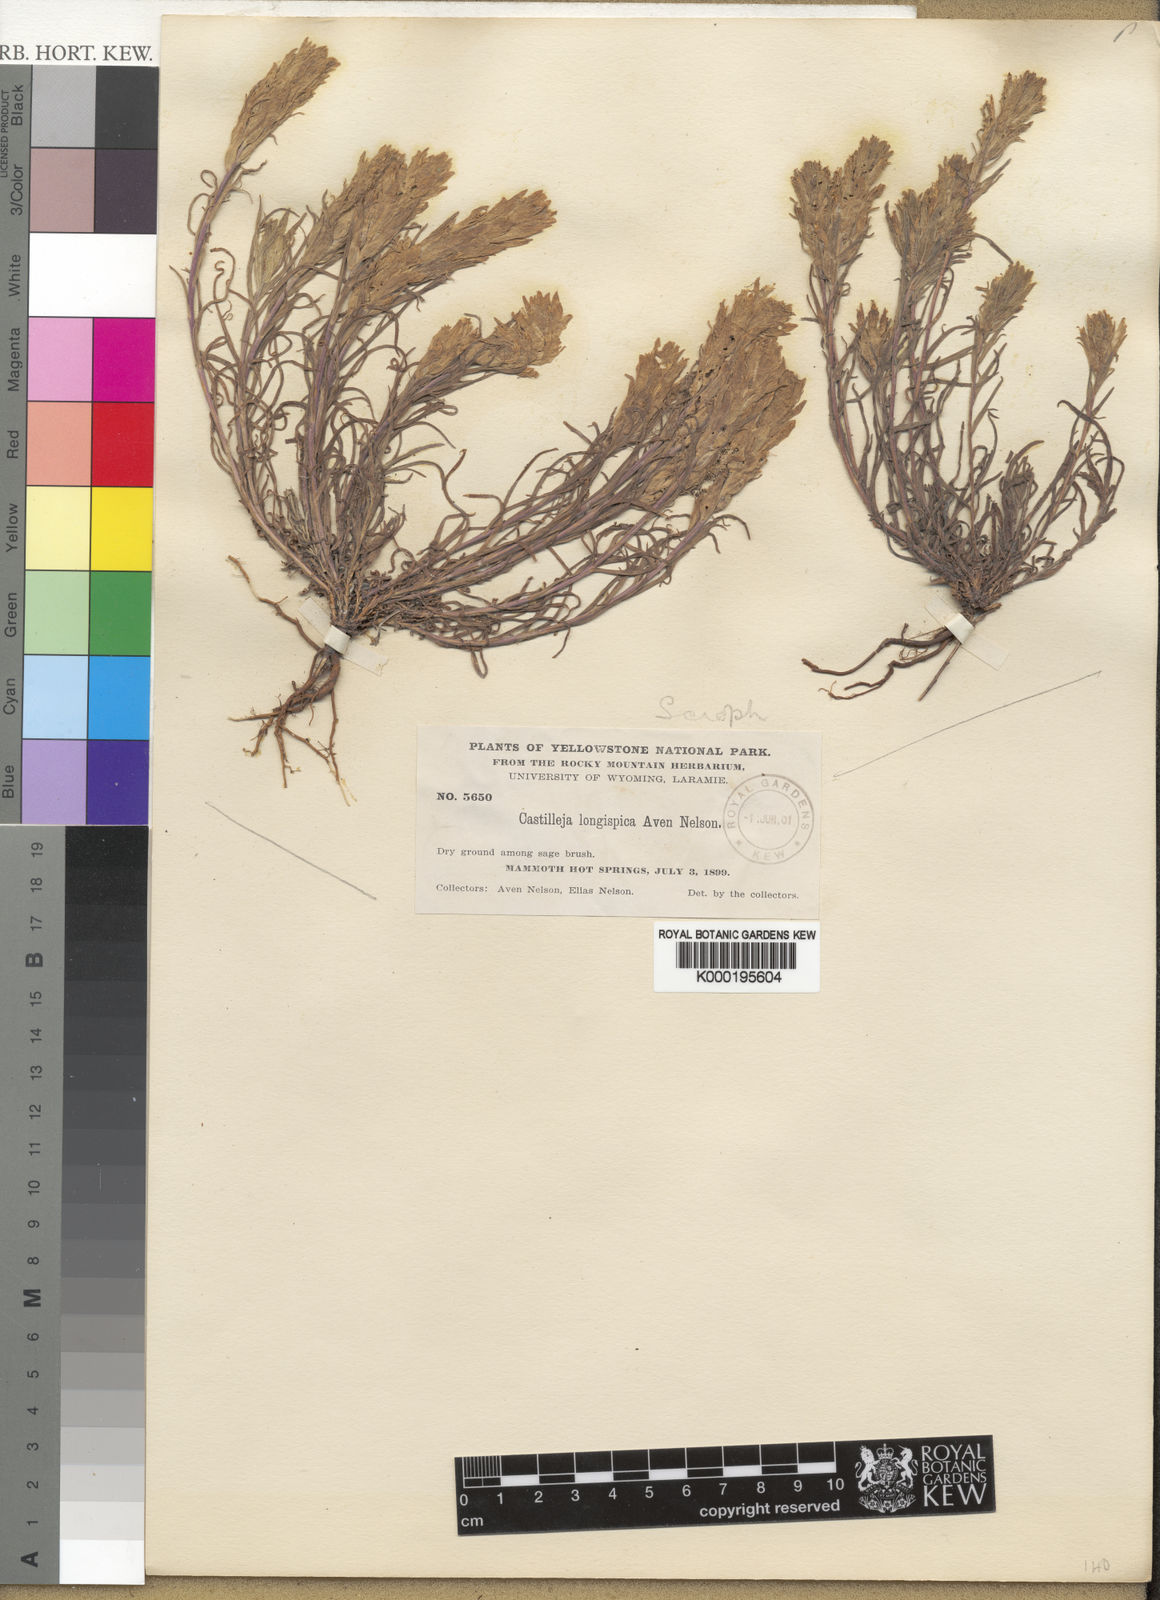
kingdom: Plantae
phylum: Tracheophyta
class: Magnoliopsida
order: Lamiales
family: Orobanchaceae
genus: Castilleja
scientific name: Castilleja pilosa
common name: Hairy paintbrush
